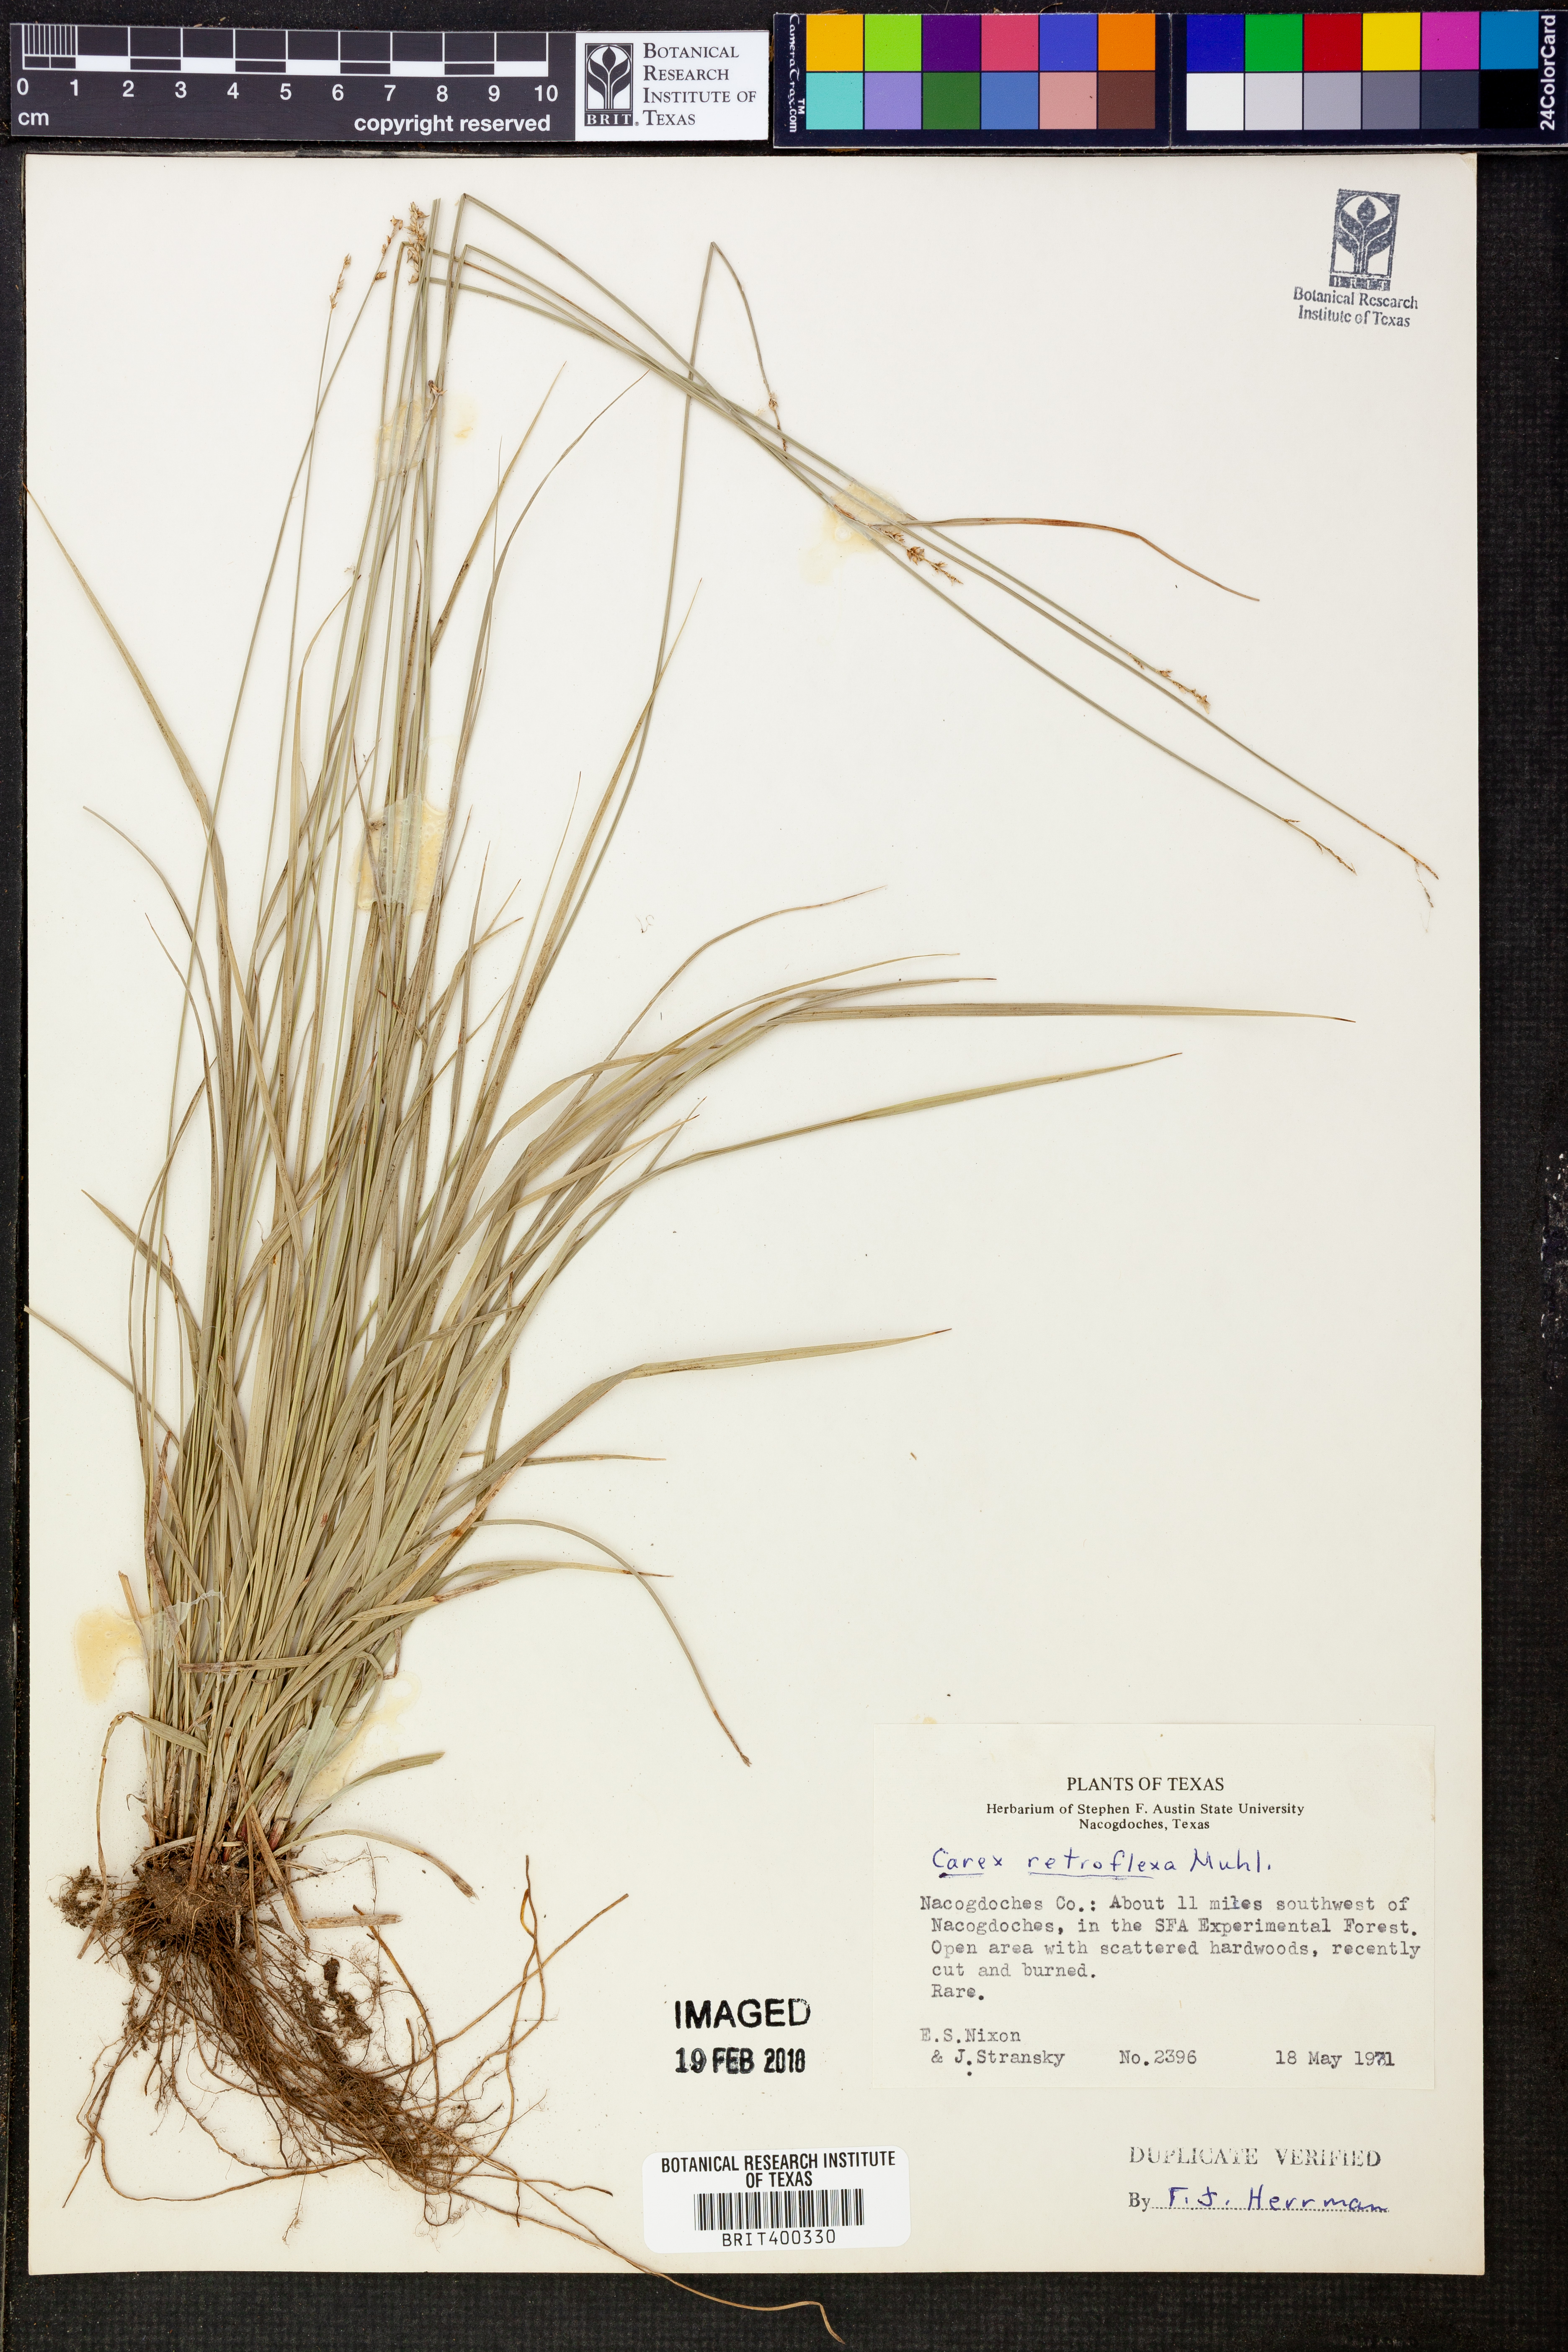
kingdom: Plantae
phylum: Tracheophyta
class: Liliopsida
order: Poales
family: Cyperaceae
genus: Carex
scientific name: Carex retroflexa
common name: Reflexed sedge
